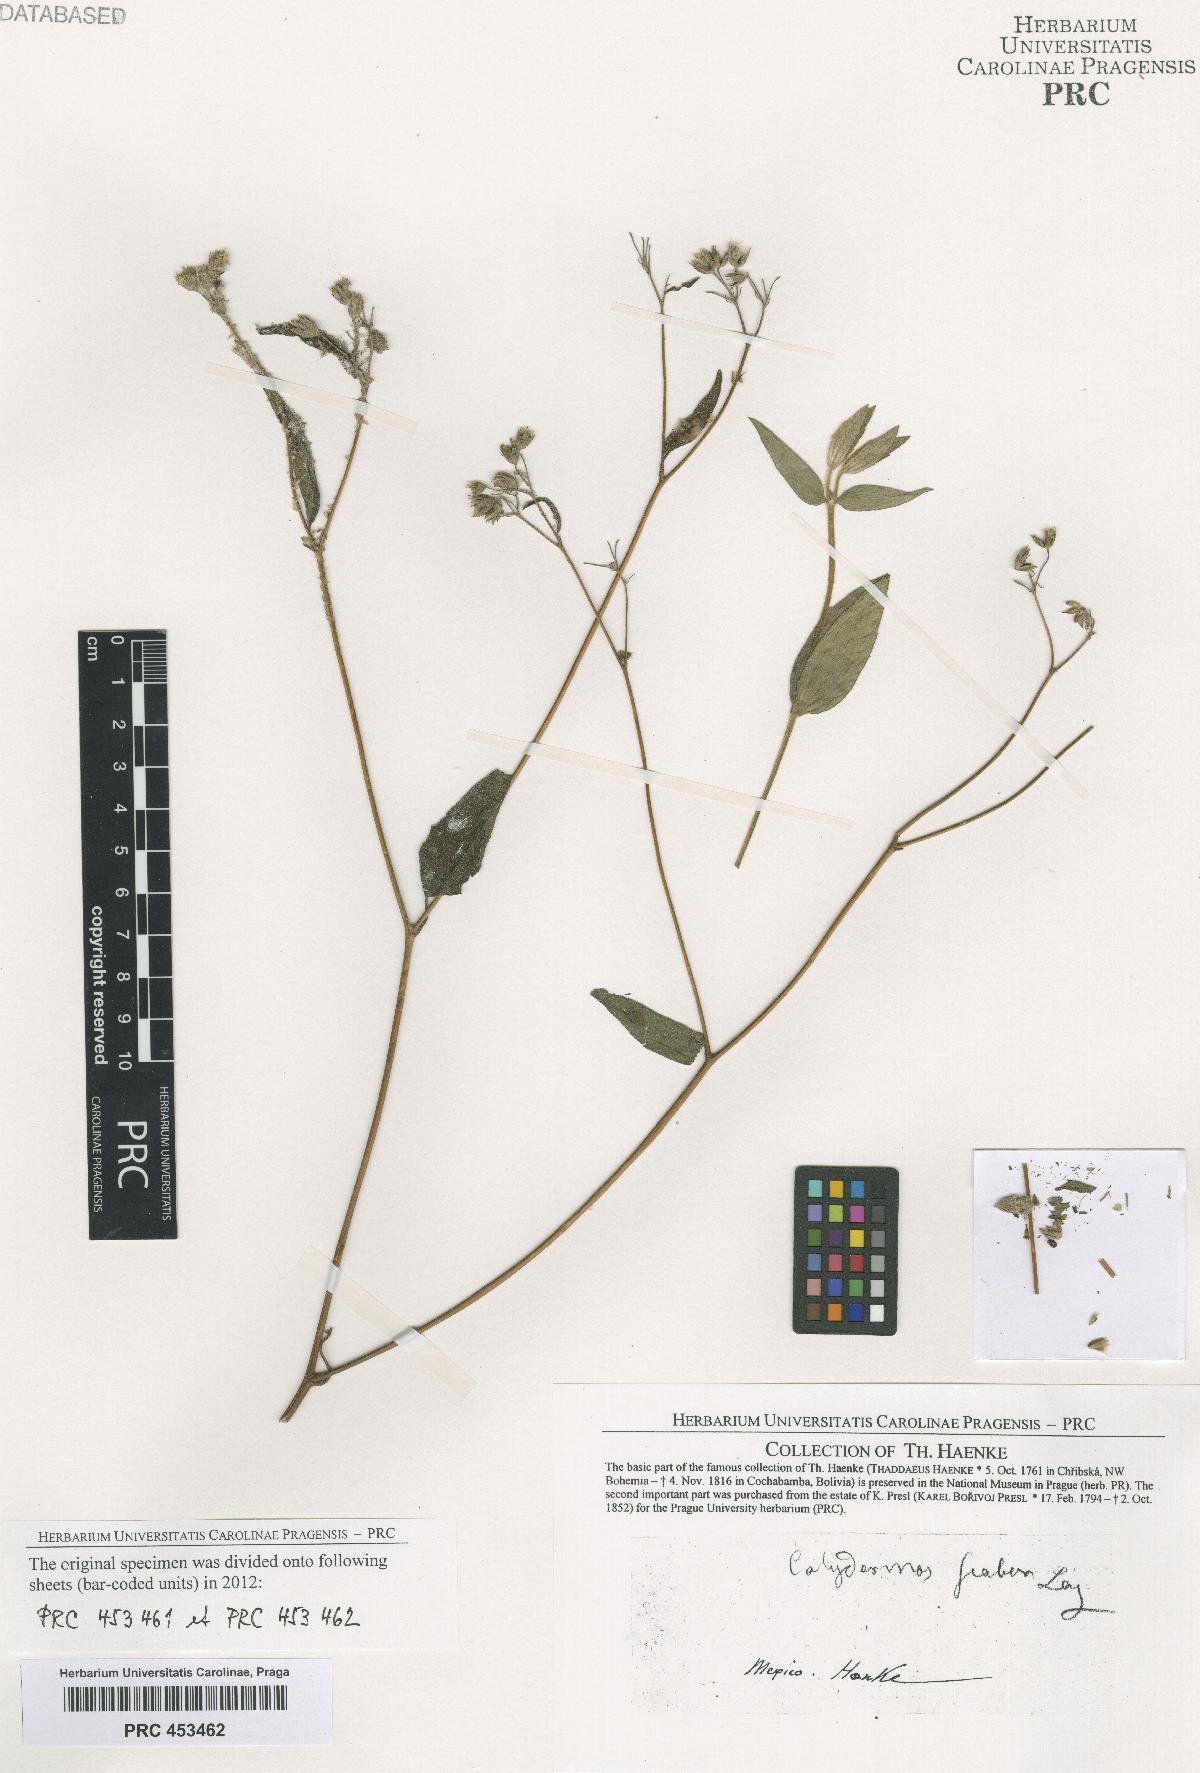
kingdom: Plantae
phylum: Tracheophyta
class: Magnoliopsida
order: Solanales
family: Solanaceae
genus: Nicandra
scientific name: Nicandra
